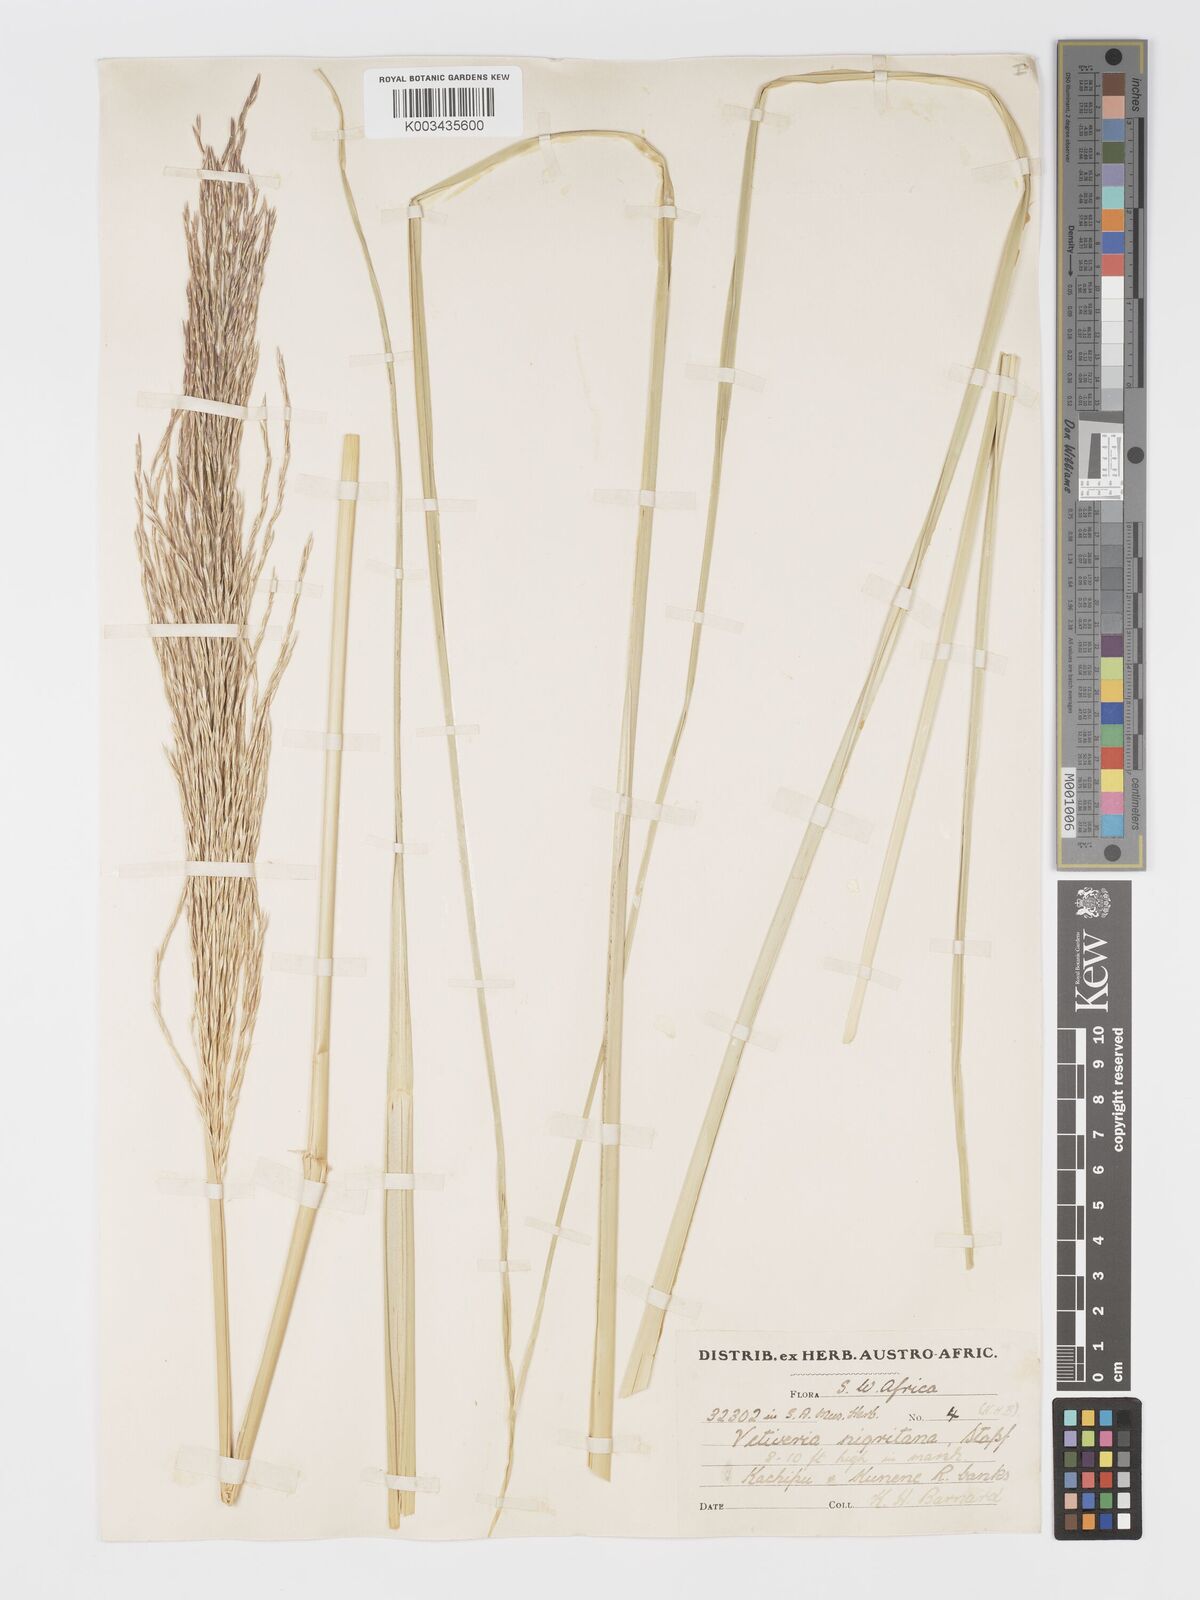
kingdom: Plantae
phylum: Tracheophyta
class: Liliopsida
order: Poales
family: Poaceae
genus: Chrysopogon
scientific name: Chrysopogon nigritanus
